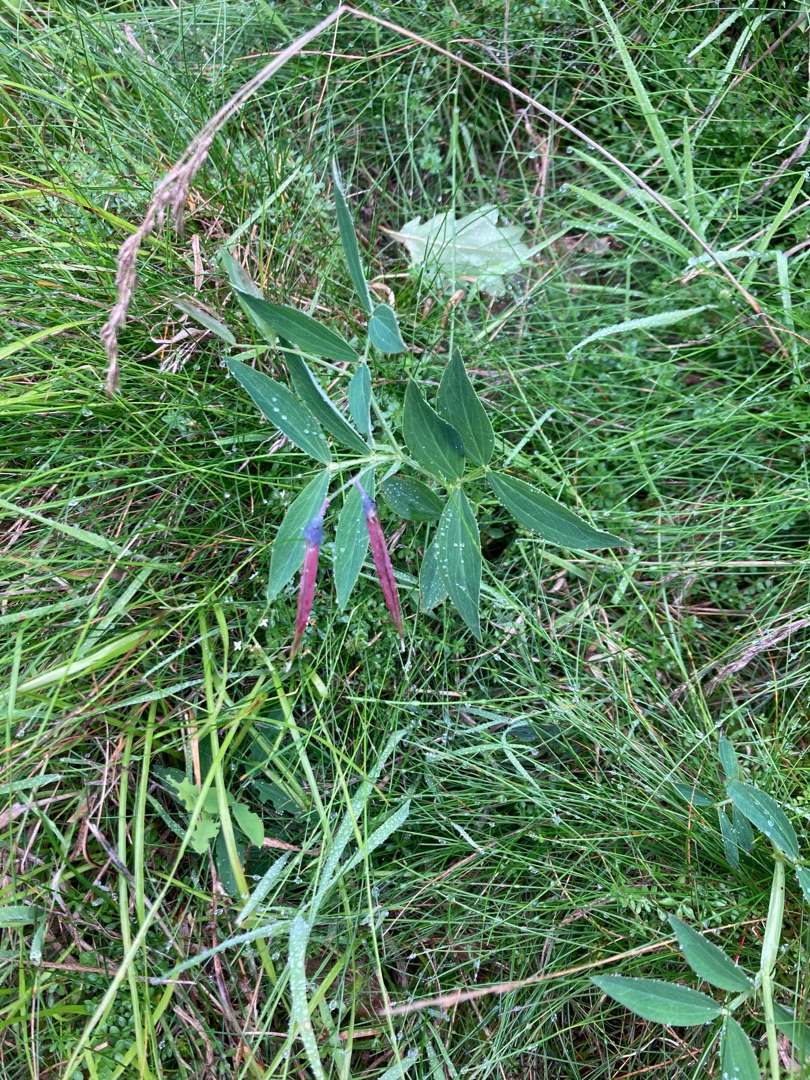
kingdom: Plantae
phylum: Tracheophyta
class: Magnoliopsida
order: Fabales
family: Fabaceae
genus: Lathyrus
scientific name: Lathyrus linifolius
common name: Krat-fladbælg
